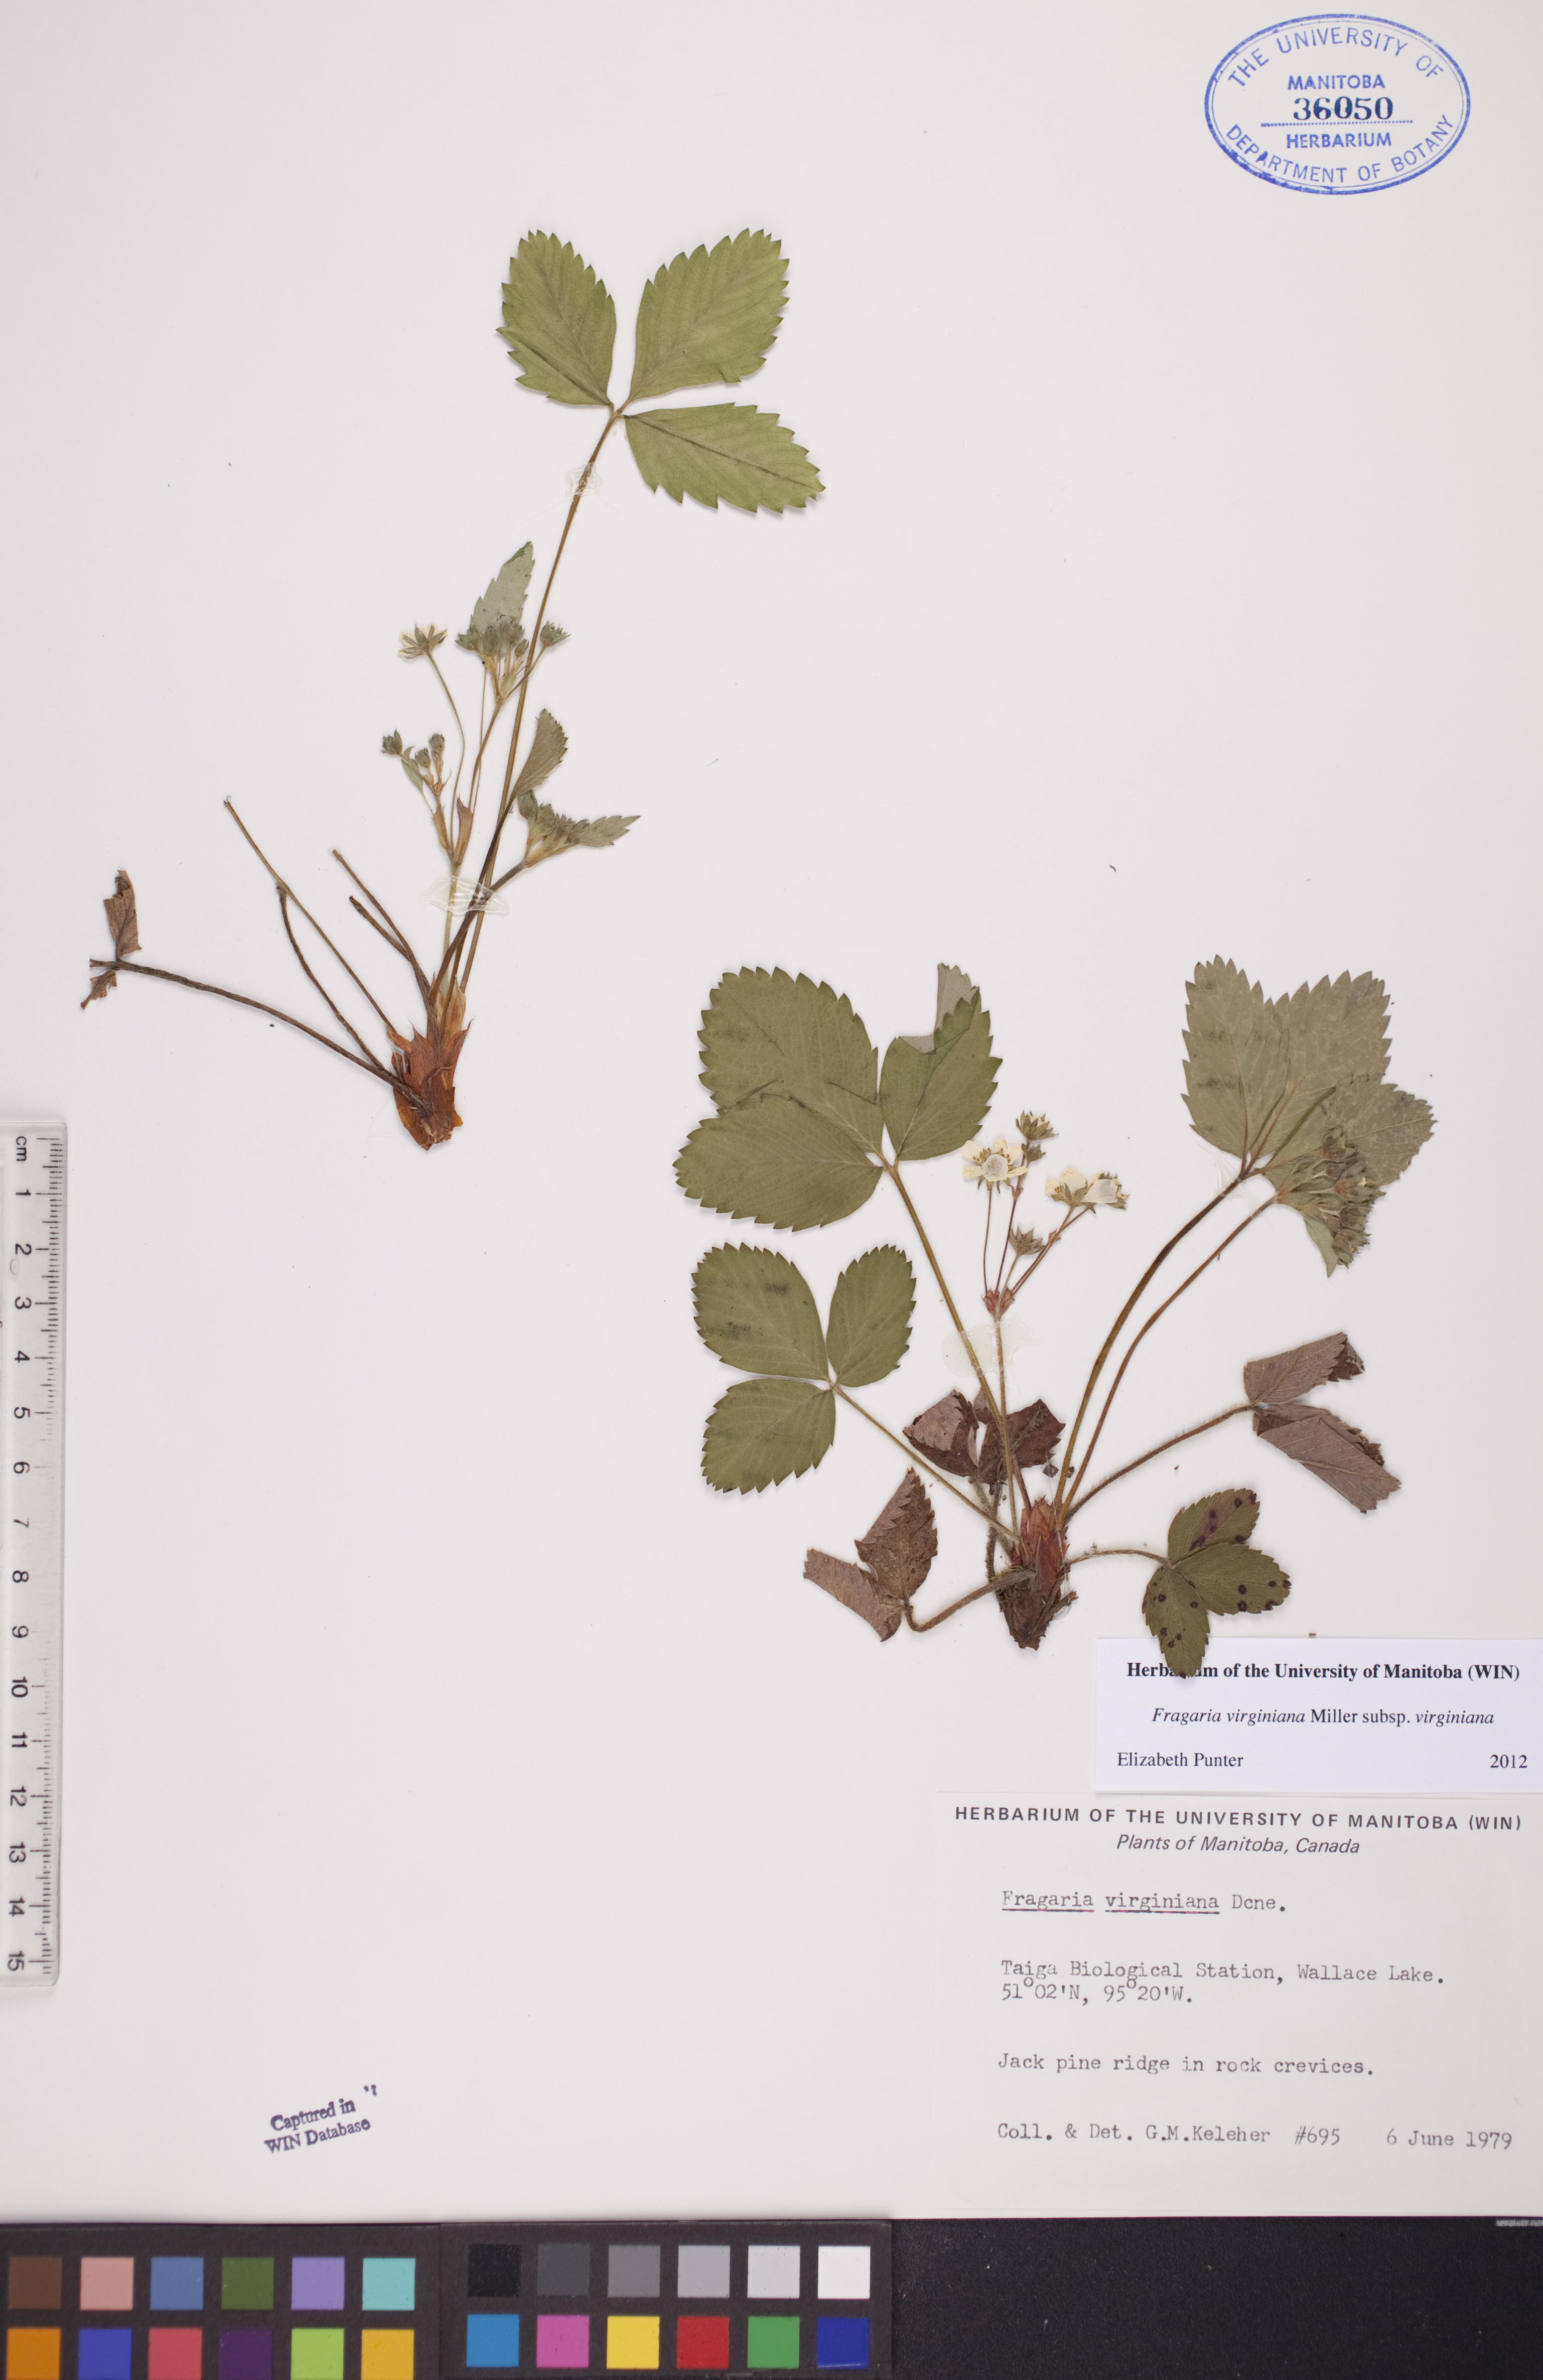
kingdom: Plantae
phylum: Tracheophyta
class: Magnoliopsida
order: Rosales
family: Rosaceae
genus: Fragaria
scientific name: Fragaria virginiana
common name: Thickleaved wild strawberry
